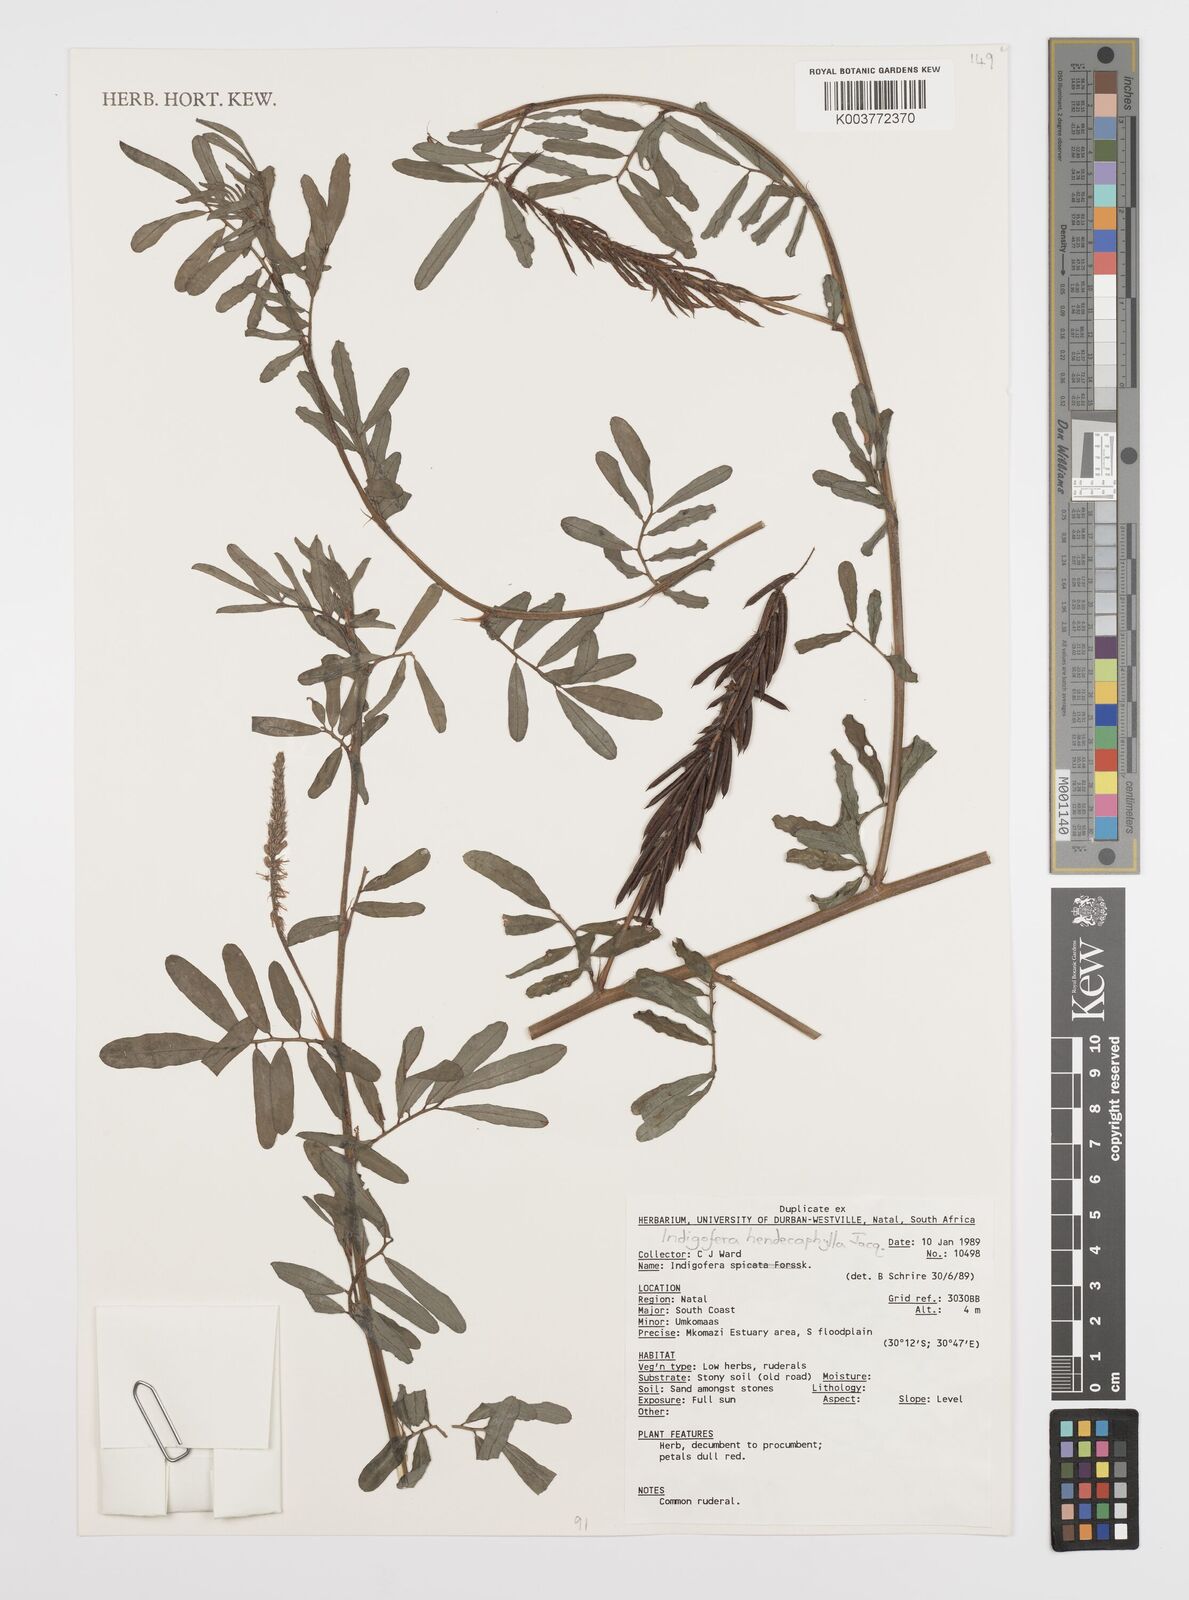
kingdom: Plantae
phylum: Tracheophyta
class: Magnoliopsida
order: Fabales
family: Fabaceae
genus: Indigofera
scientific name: Indigofera hendecaphylla
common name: Trailing indigo
